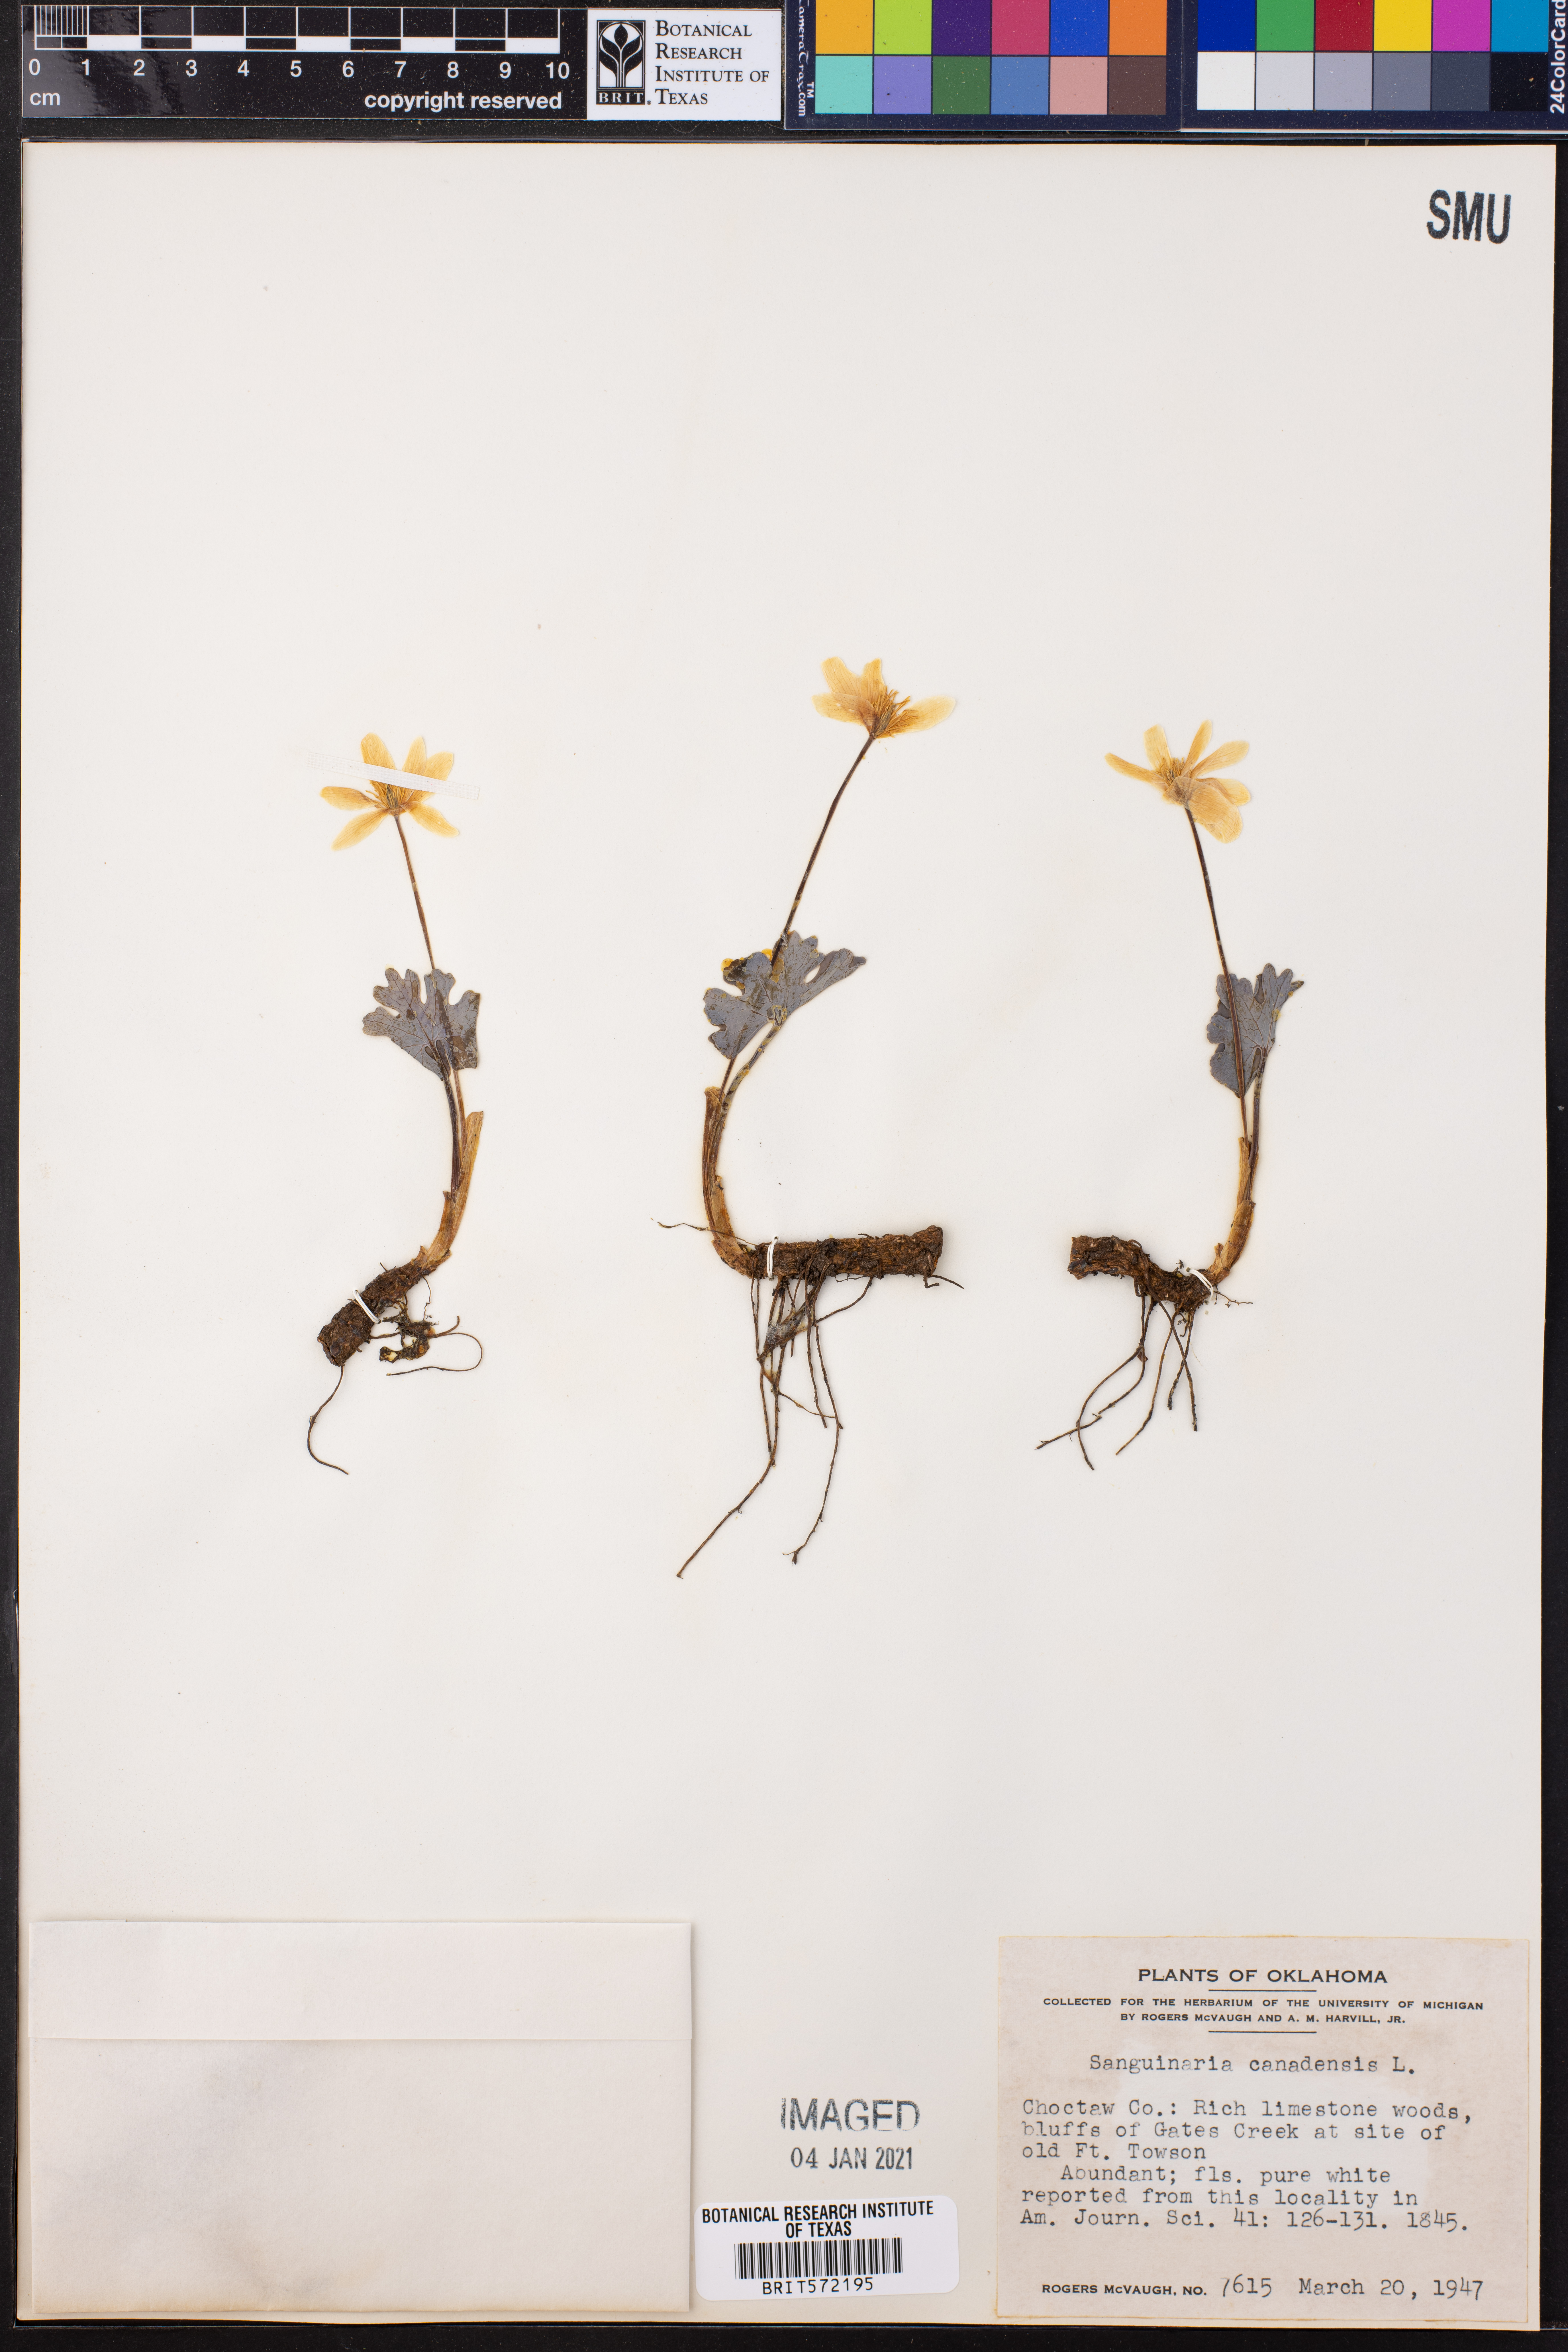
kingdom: Plantae
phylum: Tracheophyta
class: Magnoliopsida
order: Ranunculales
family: Papaveraceae
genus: Sanguinaria
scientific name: Sanguinaria canadensis
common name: Bloodroot
